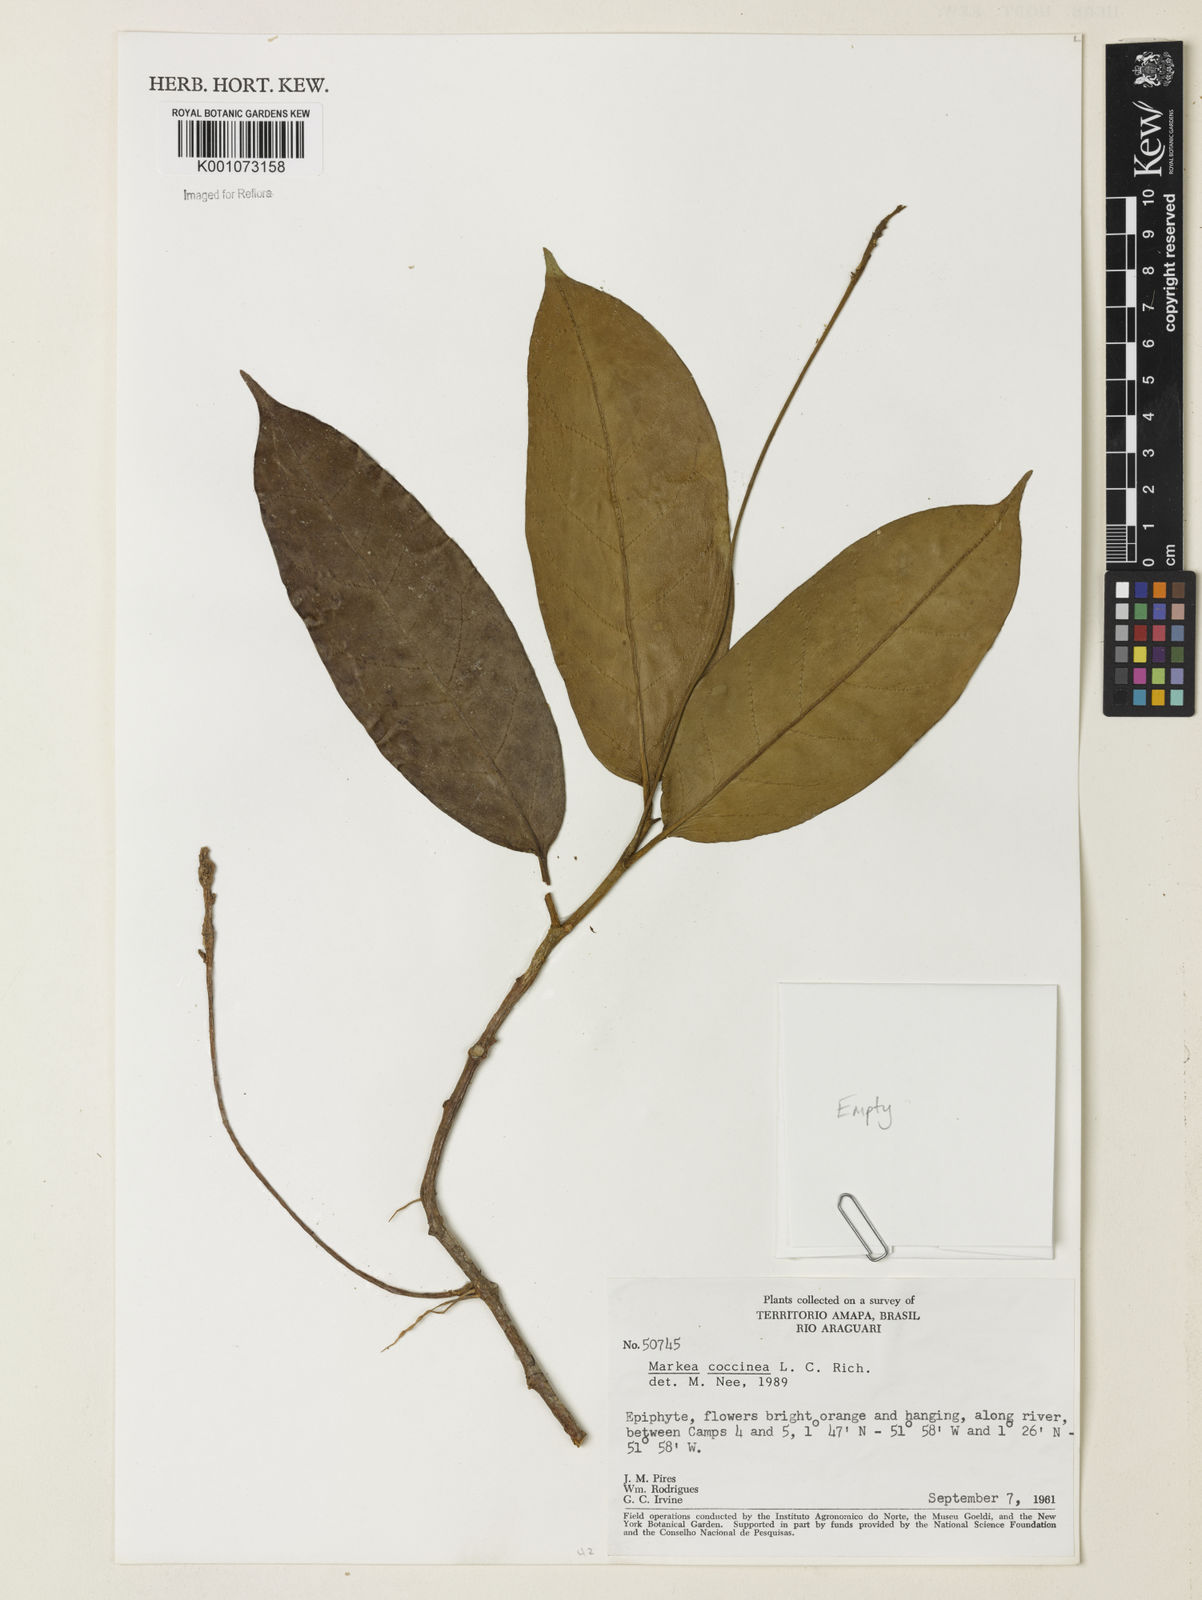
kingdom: Plantae
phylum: Tracheophyta
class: Magnoliopsida
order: Solanales
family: Solanaceae
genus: Markea
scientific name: Markea coccinea
